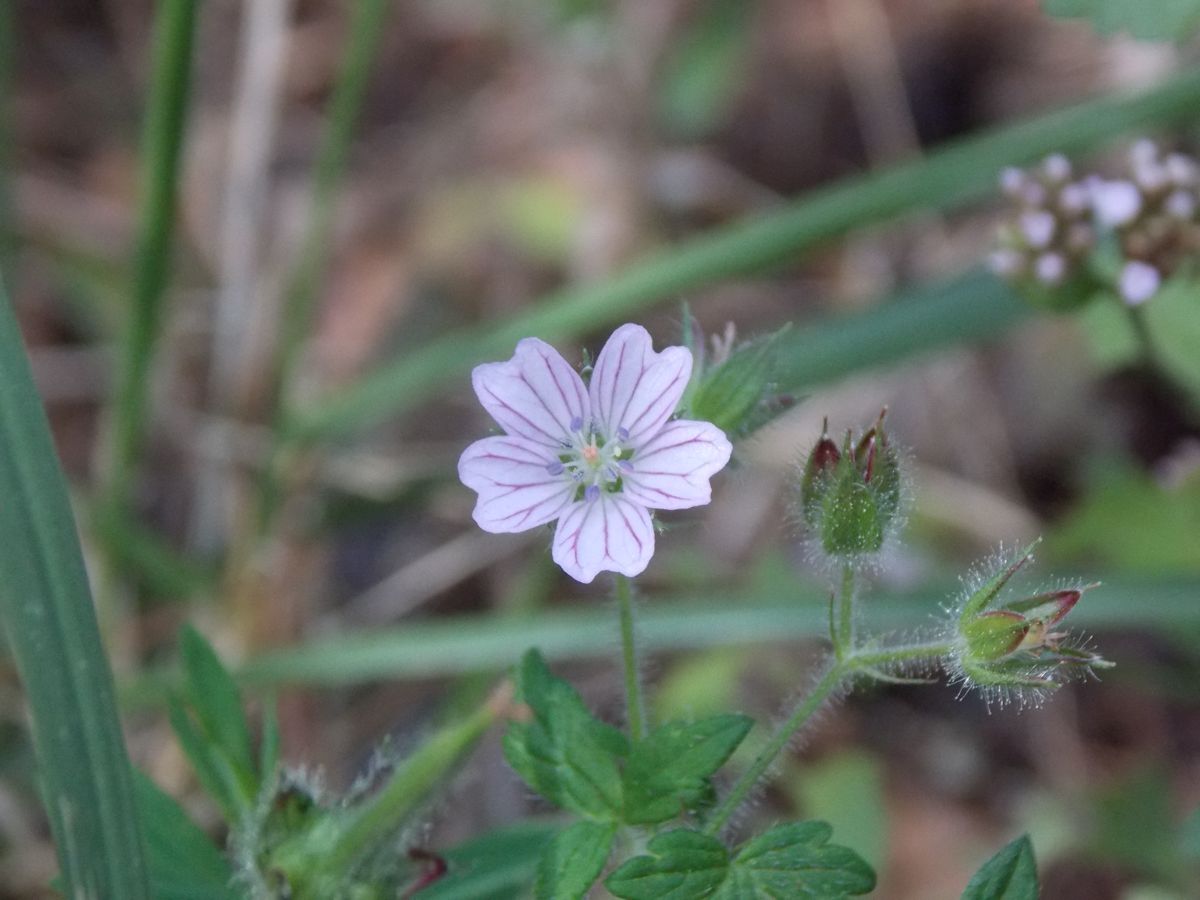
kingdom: Plantae
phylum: Tracheophyta
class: Magnoliopsida
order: Geraniales
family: Geraniaceae
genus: Geranium
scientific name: Geranium seemannii
